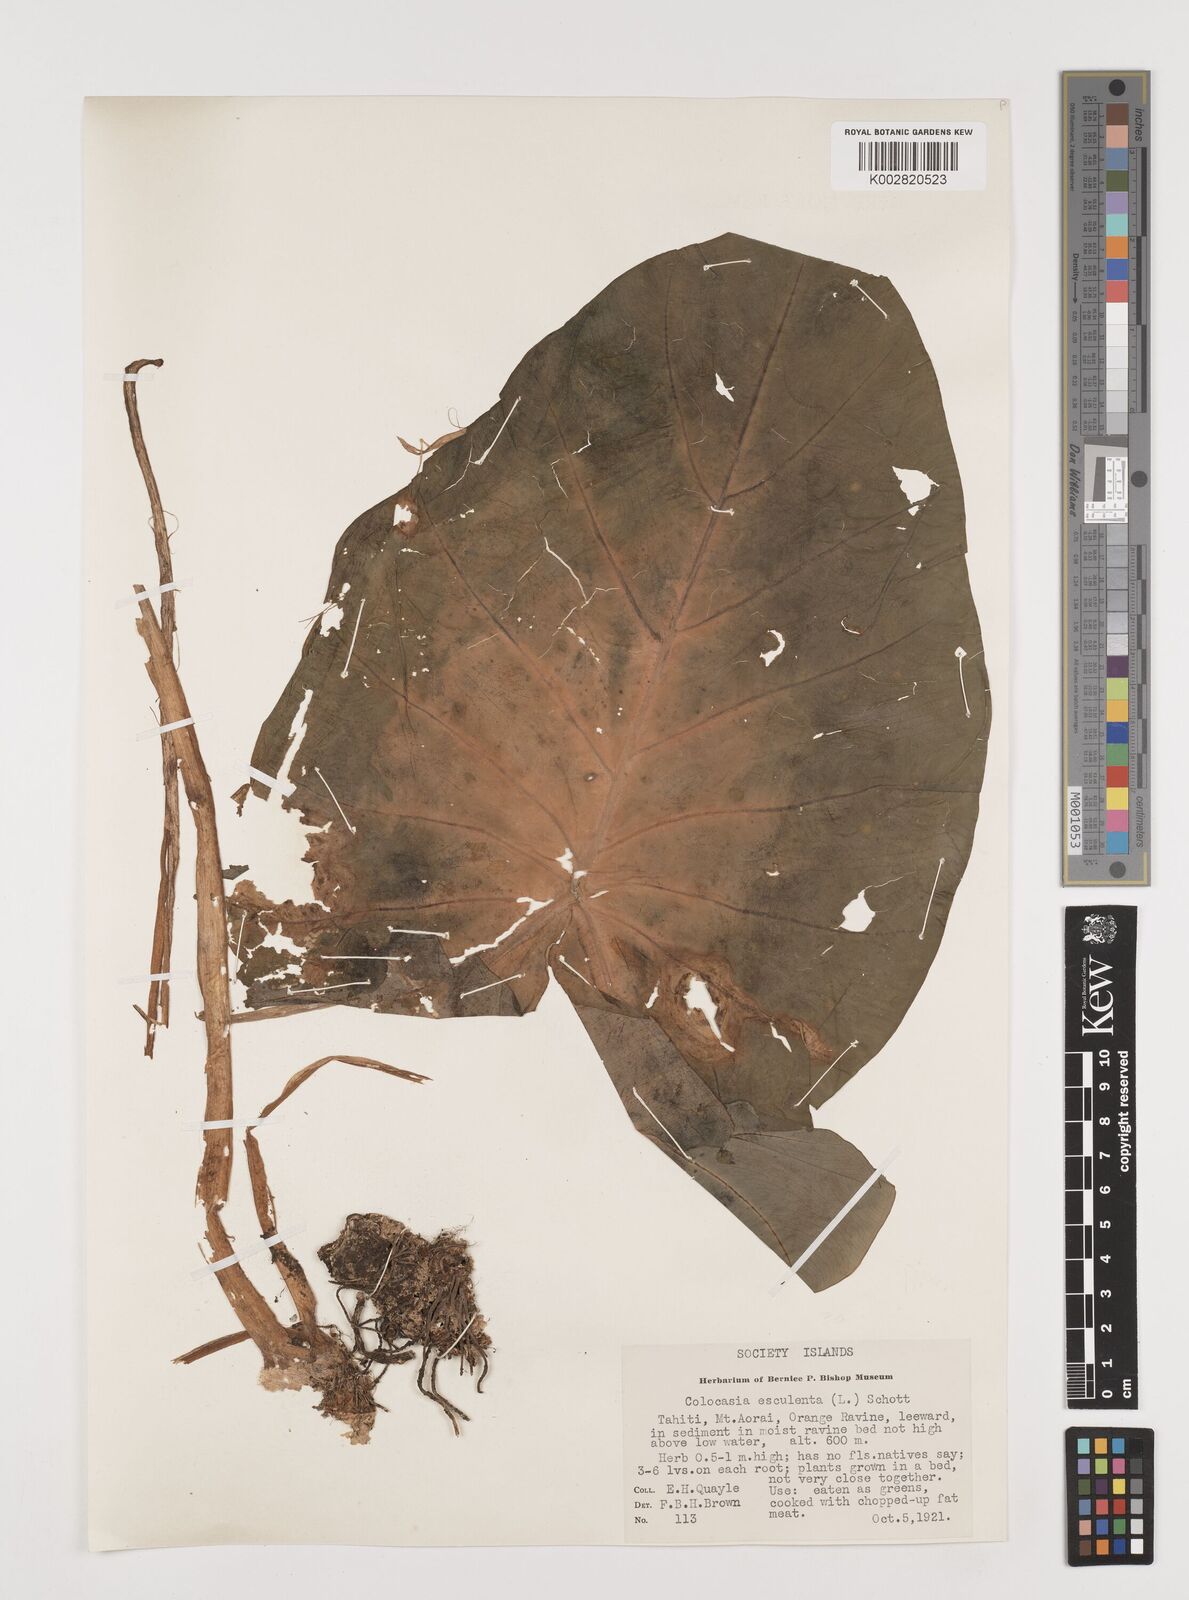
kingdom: Plantae
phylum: Tracheophyta
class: Liliopsida
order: Alismatales
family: Araceae
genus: Colocasia
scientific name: Colocasia esculenta
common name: Taro
